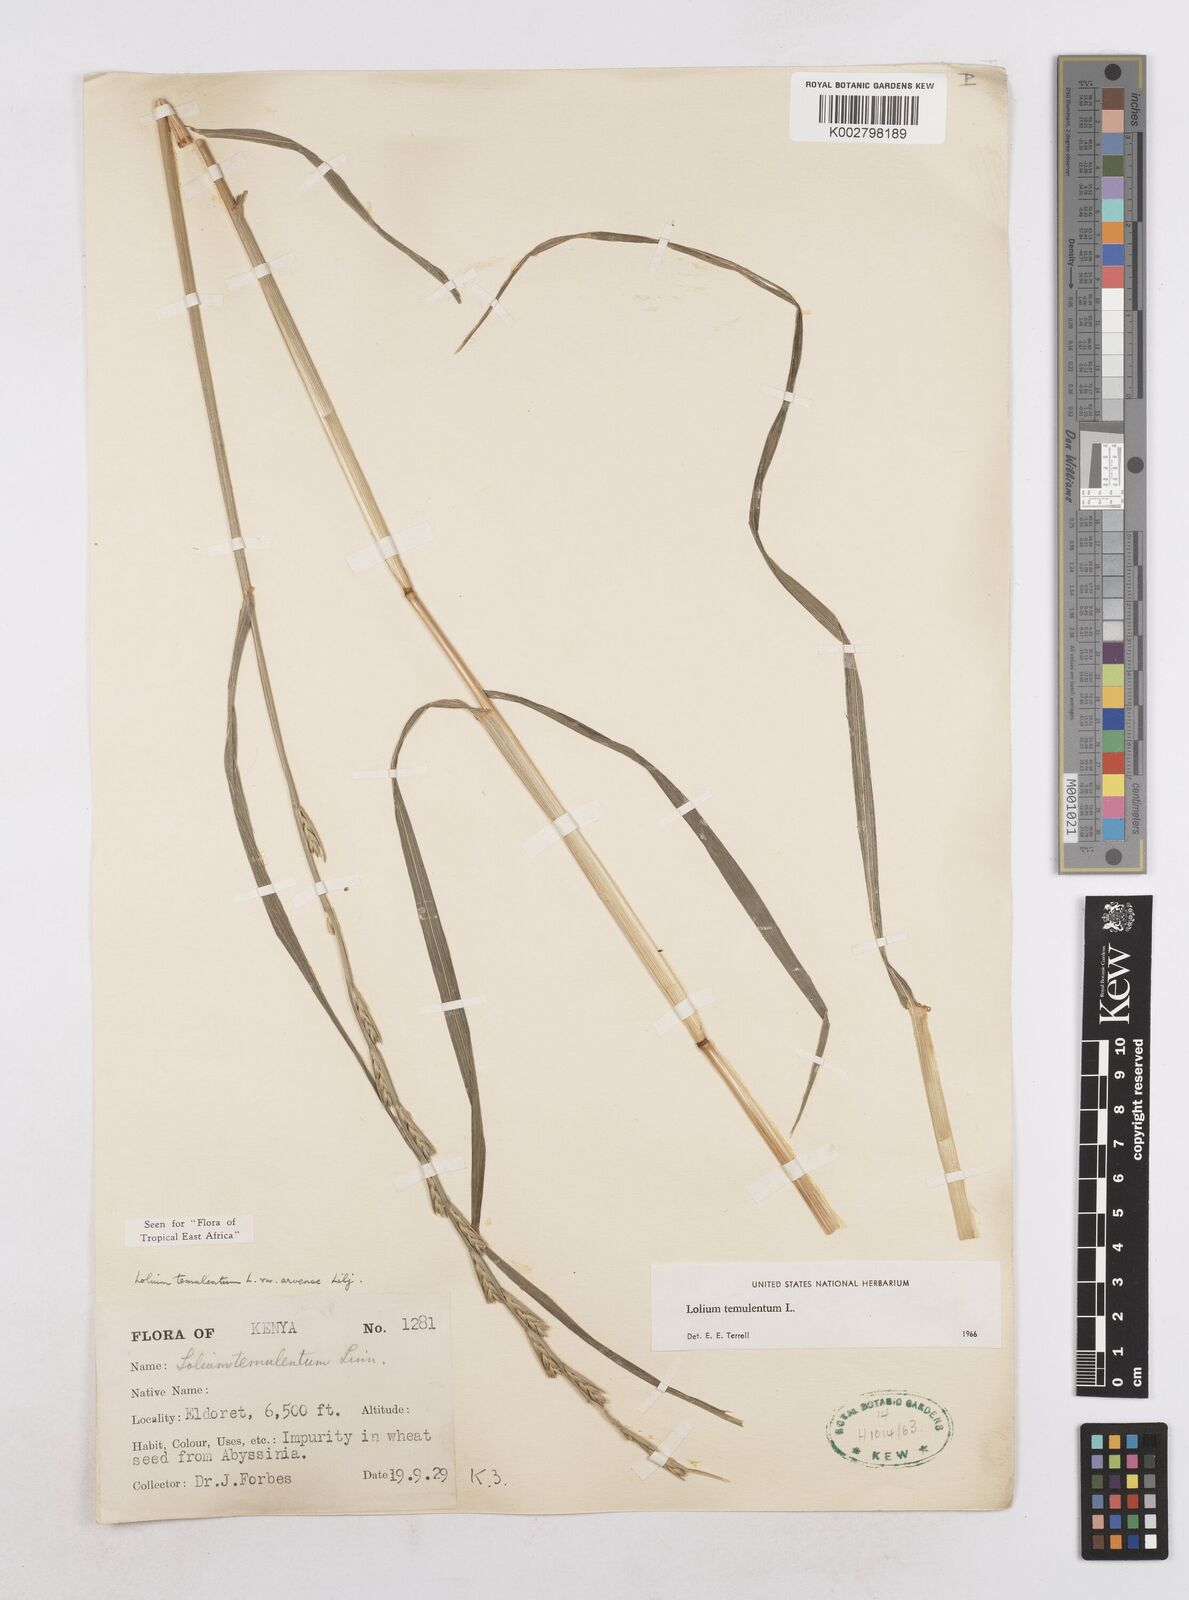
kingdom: Plantae
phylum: Tracheophyta
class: Liliopsida
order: Poales
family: Poaceae
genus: Lolium
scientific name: Lolium temulentum
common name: Darnel
